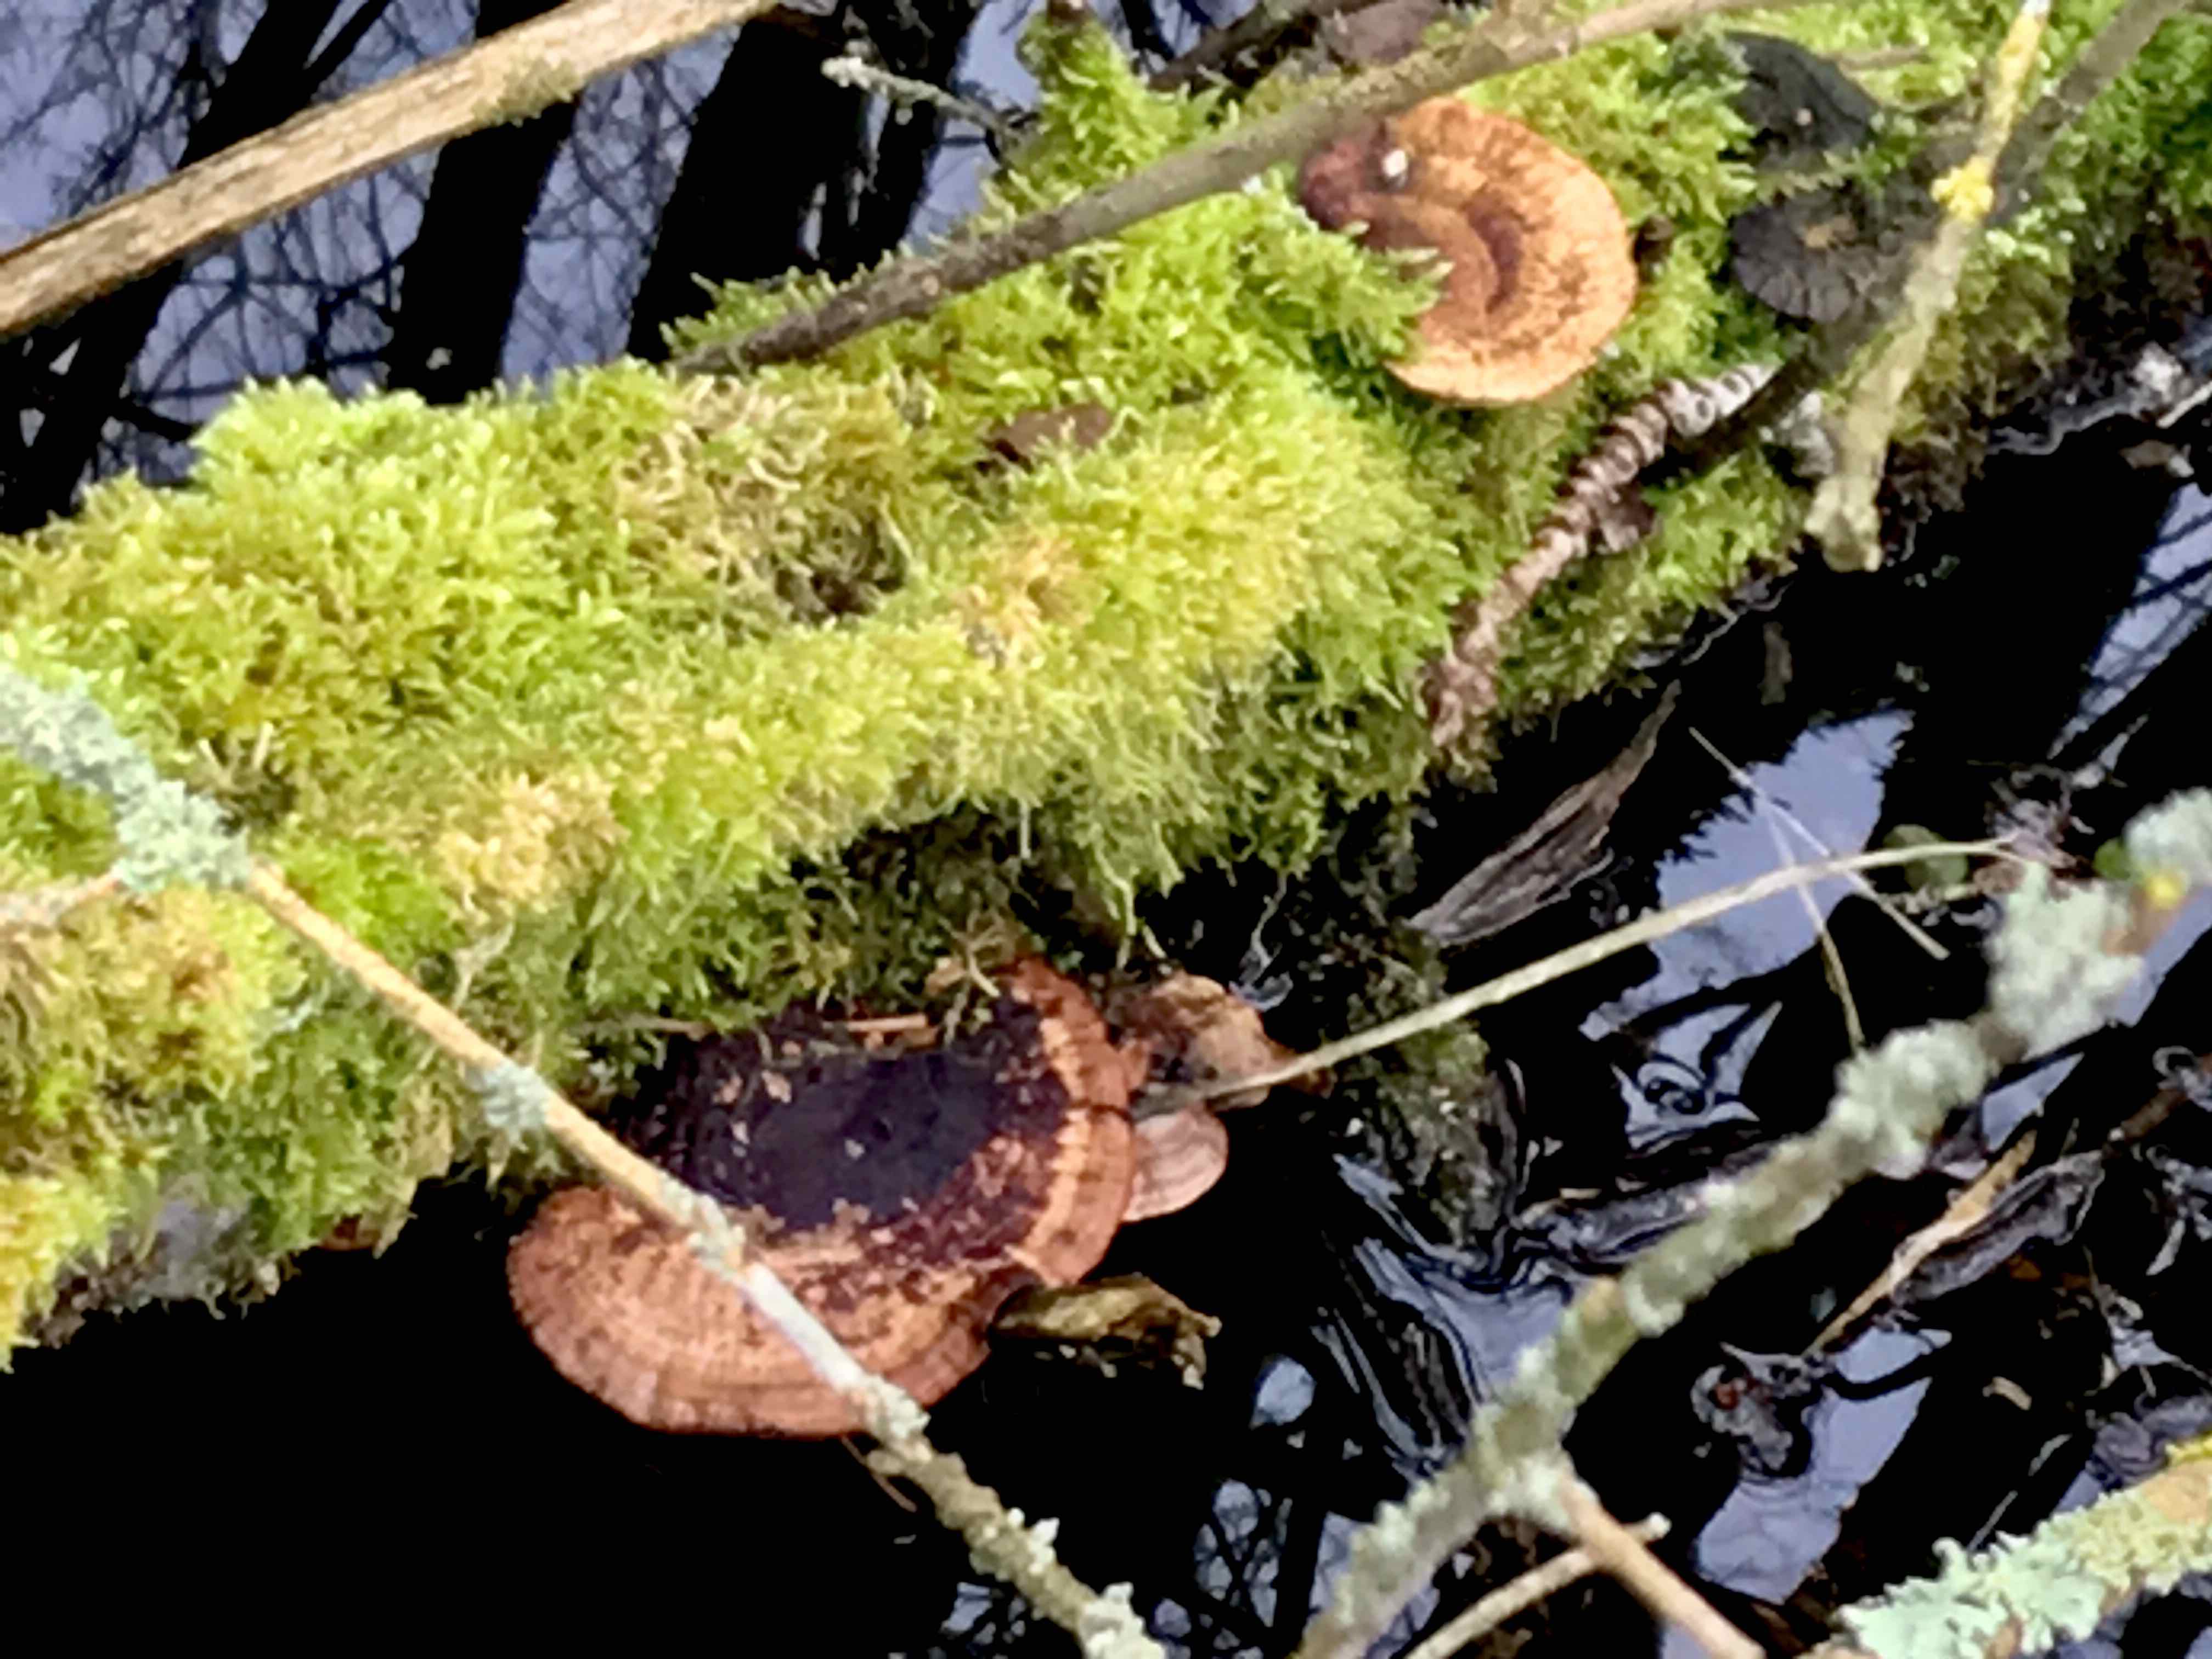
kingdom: Fungi
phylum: Basidiomycota
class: Agaricomycetes
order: Polyporales
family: Polyporaceae
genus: Daedaleopsis
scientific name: Daedaleopsis confragosa
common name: rødmende læderporesvamp
